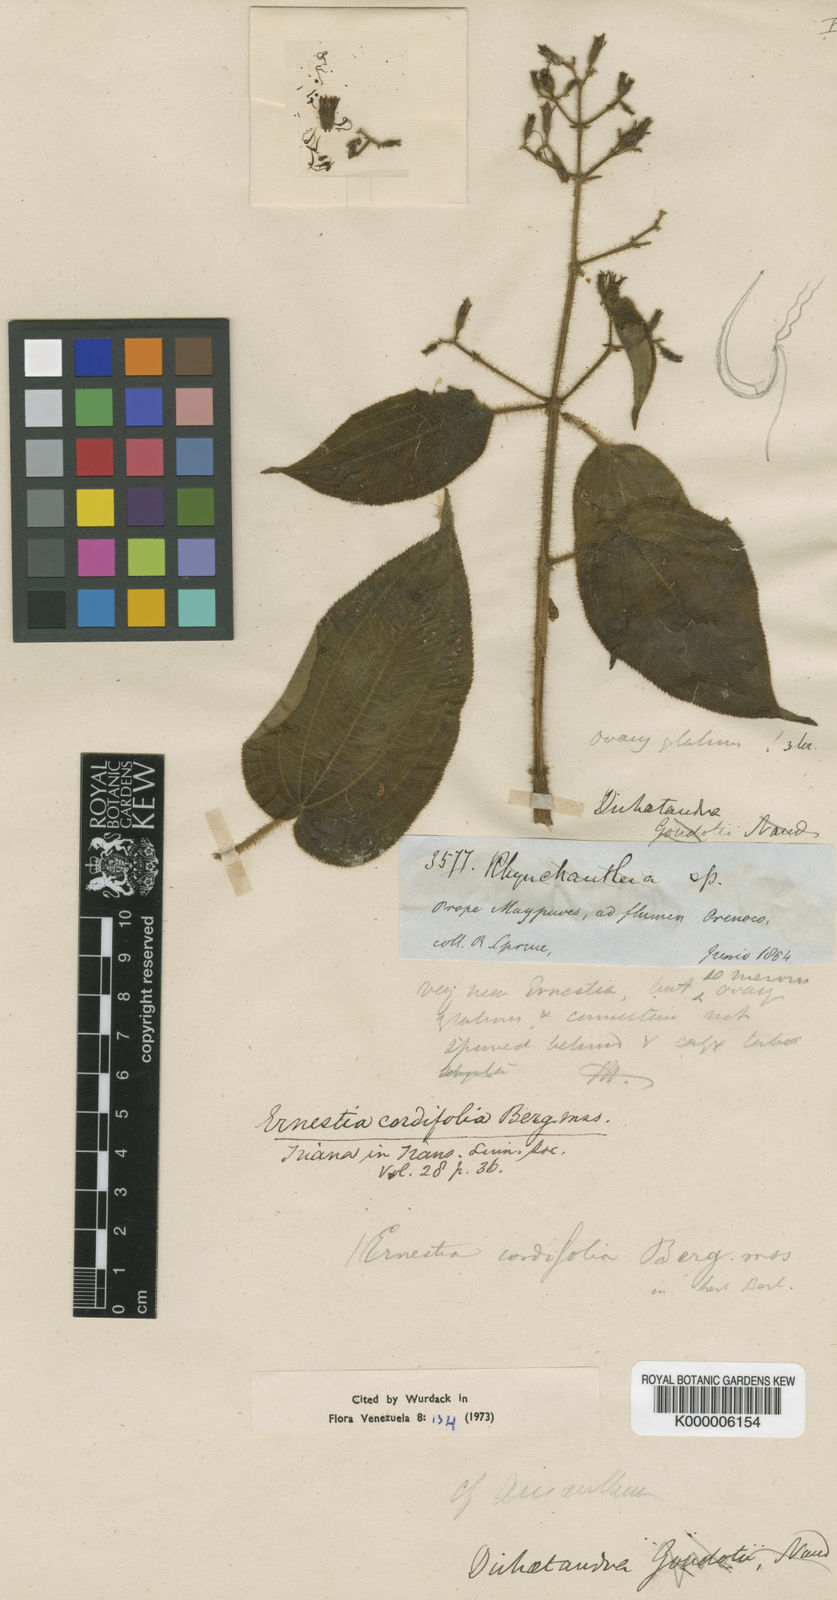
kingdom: Plantae
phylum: Tracheophyta
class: Magnoliopsida
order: Myrtales
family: Melastomataceae
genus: Pseudoernestia
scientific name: Pseudoernestia cordifolia
